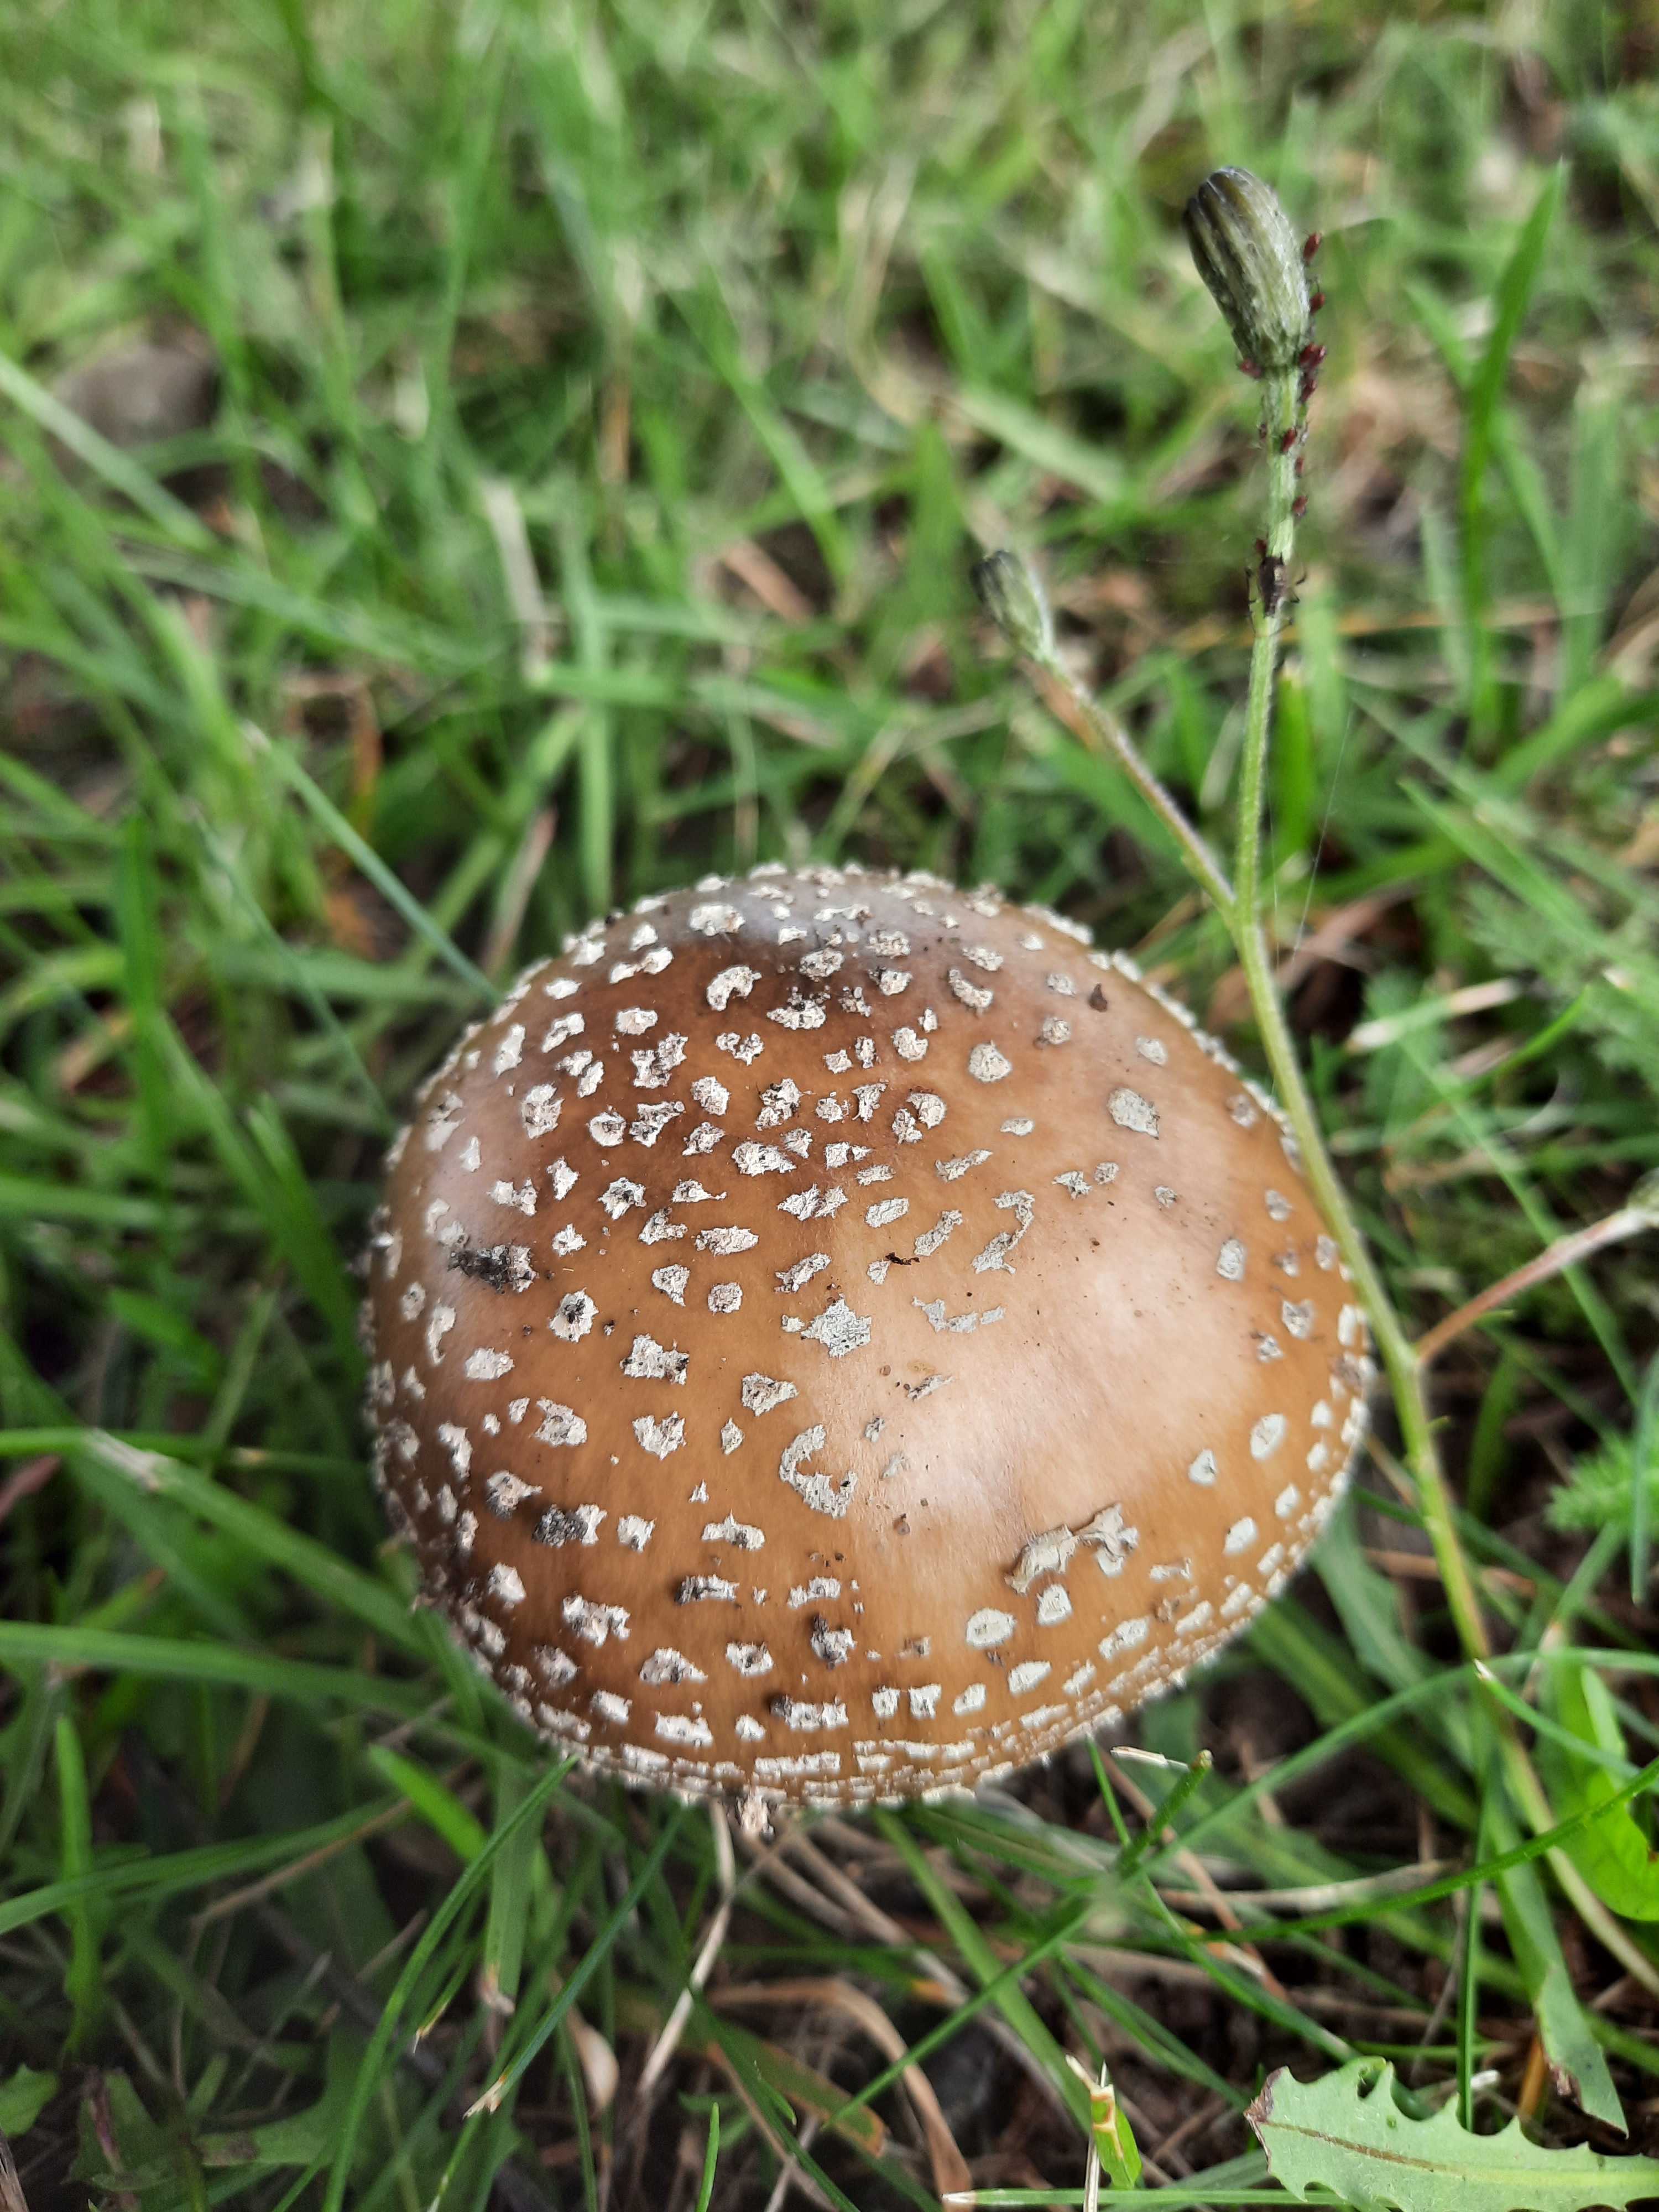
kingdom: Fungi
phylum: Basidiomycota
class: Agaricomycetes
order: Agaricales
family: Amanitaceae
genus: Amanita
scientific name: Amanita pantherina
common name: panter-fluesvamp
